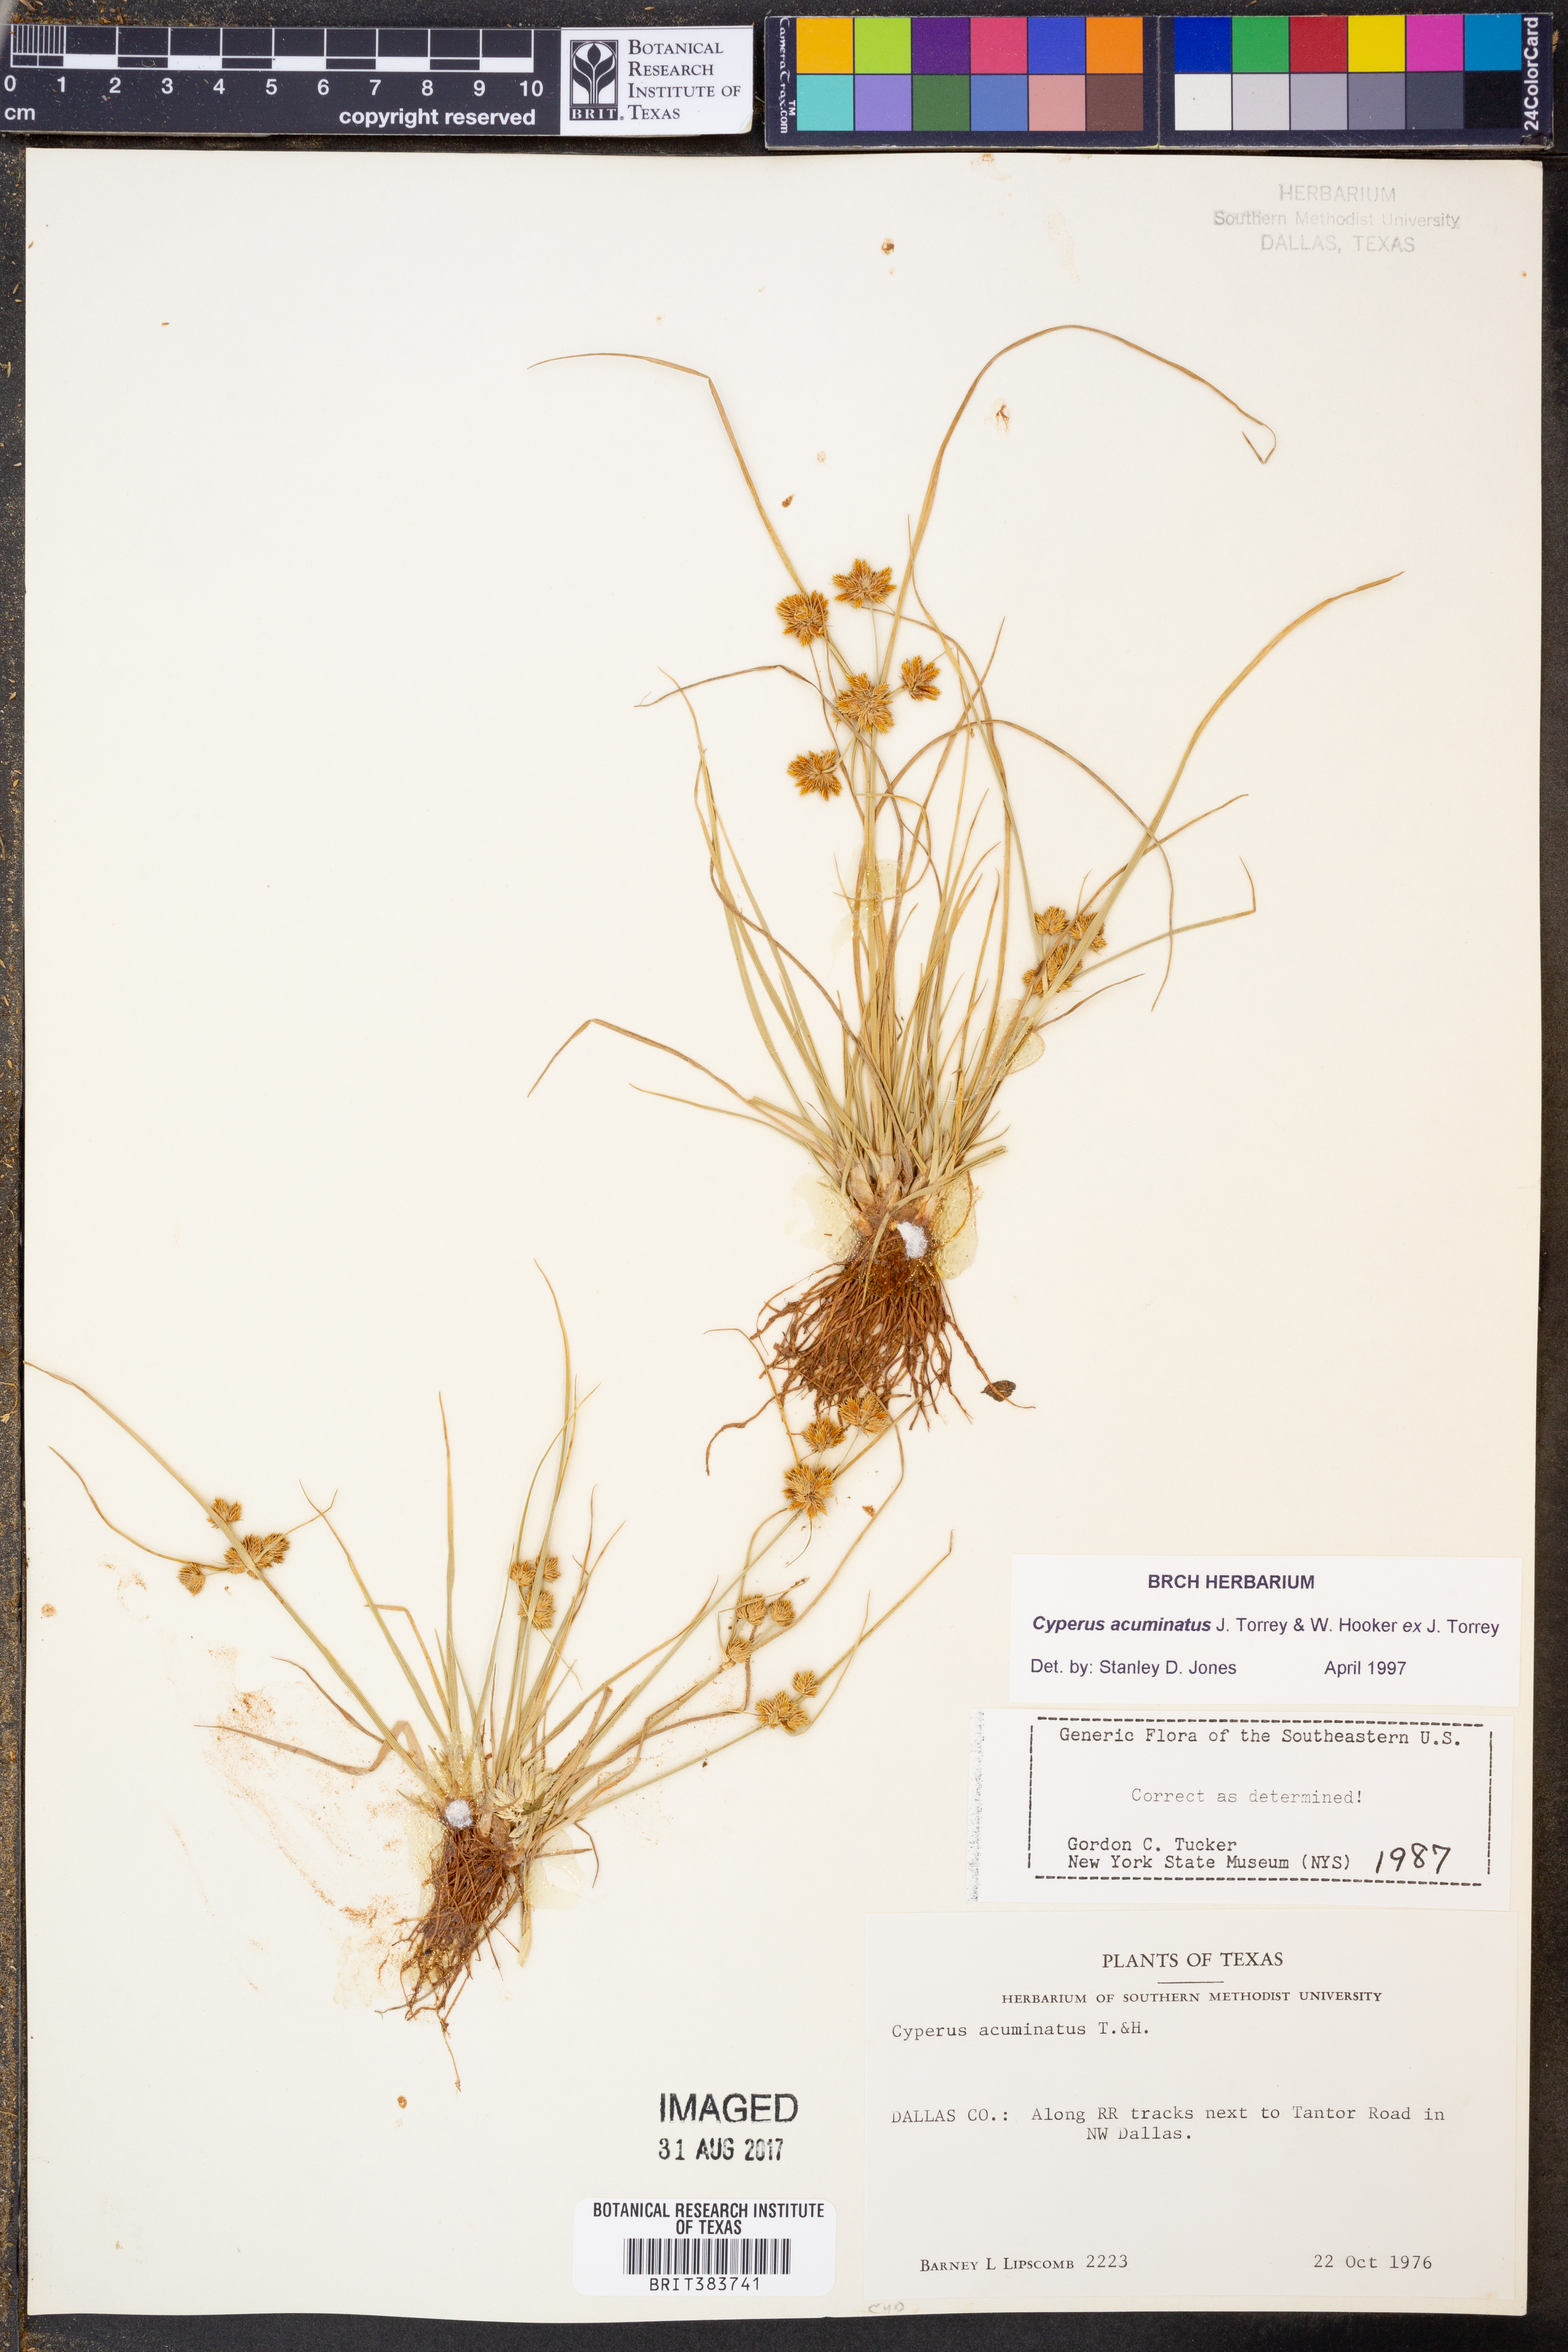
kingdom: Plantae
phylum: Tracheophyta
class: Liliopsida
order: Poales
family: Cyperaceae
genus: Cyperus
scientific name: Cyperus acuminatus
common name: Short-pointed cyperus
